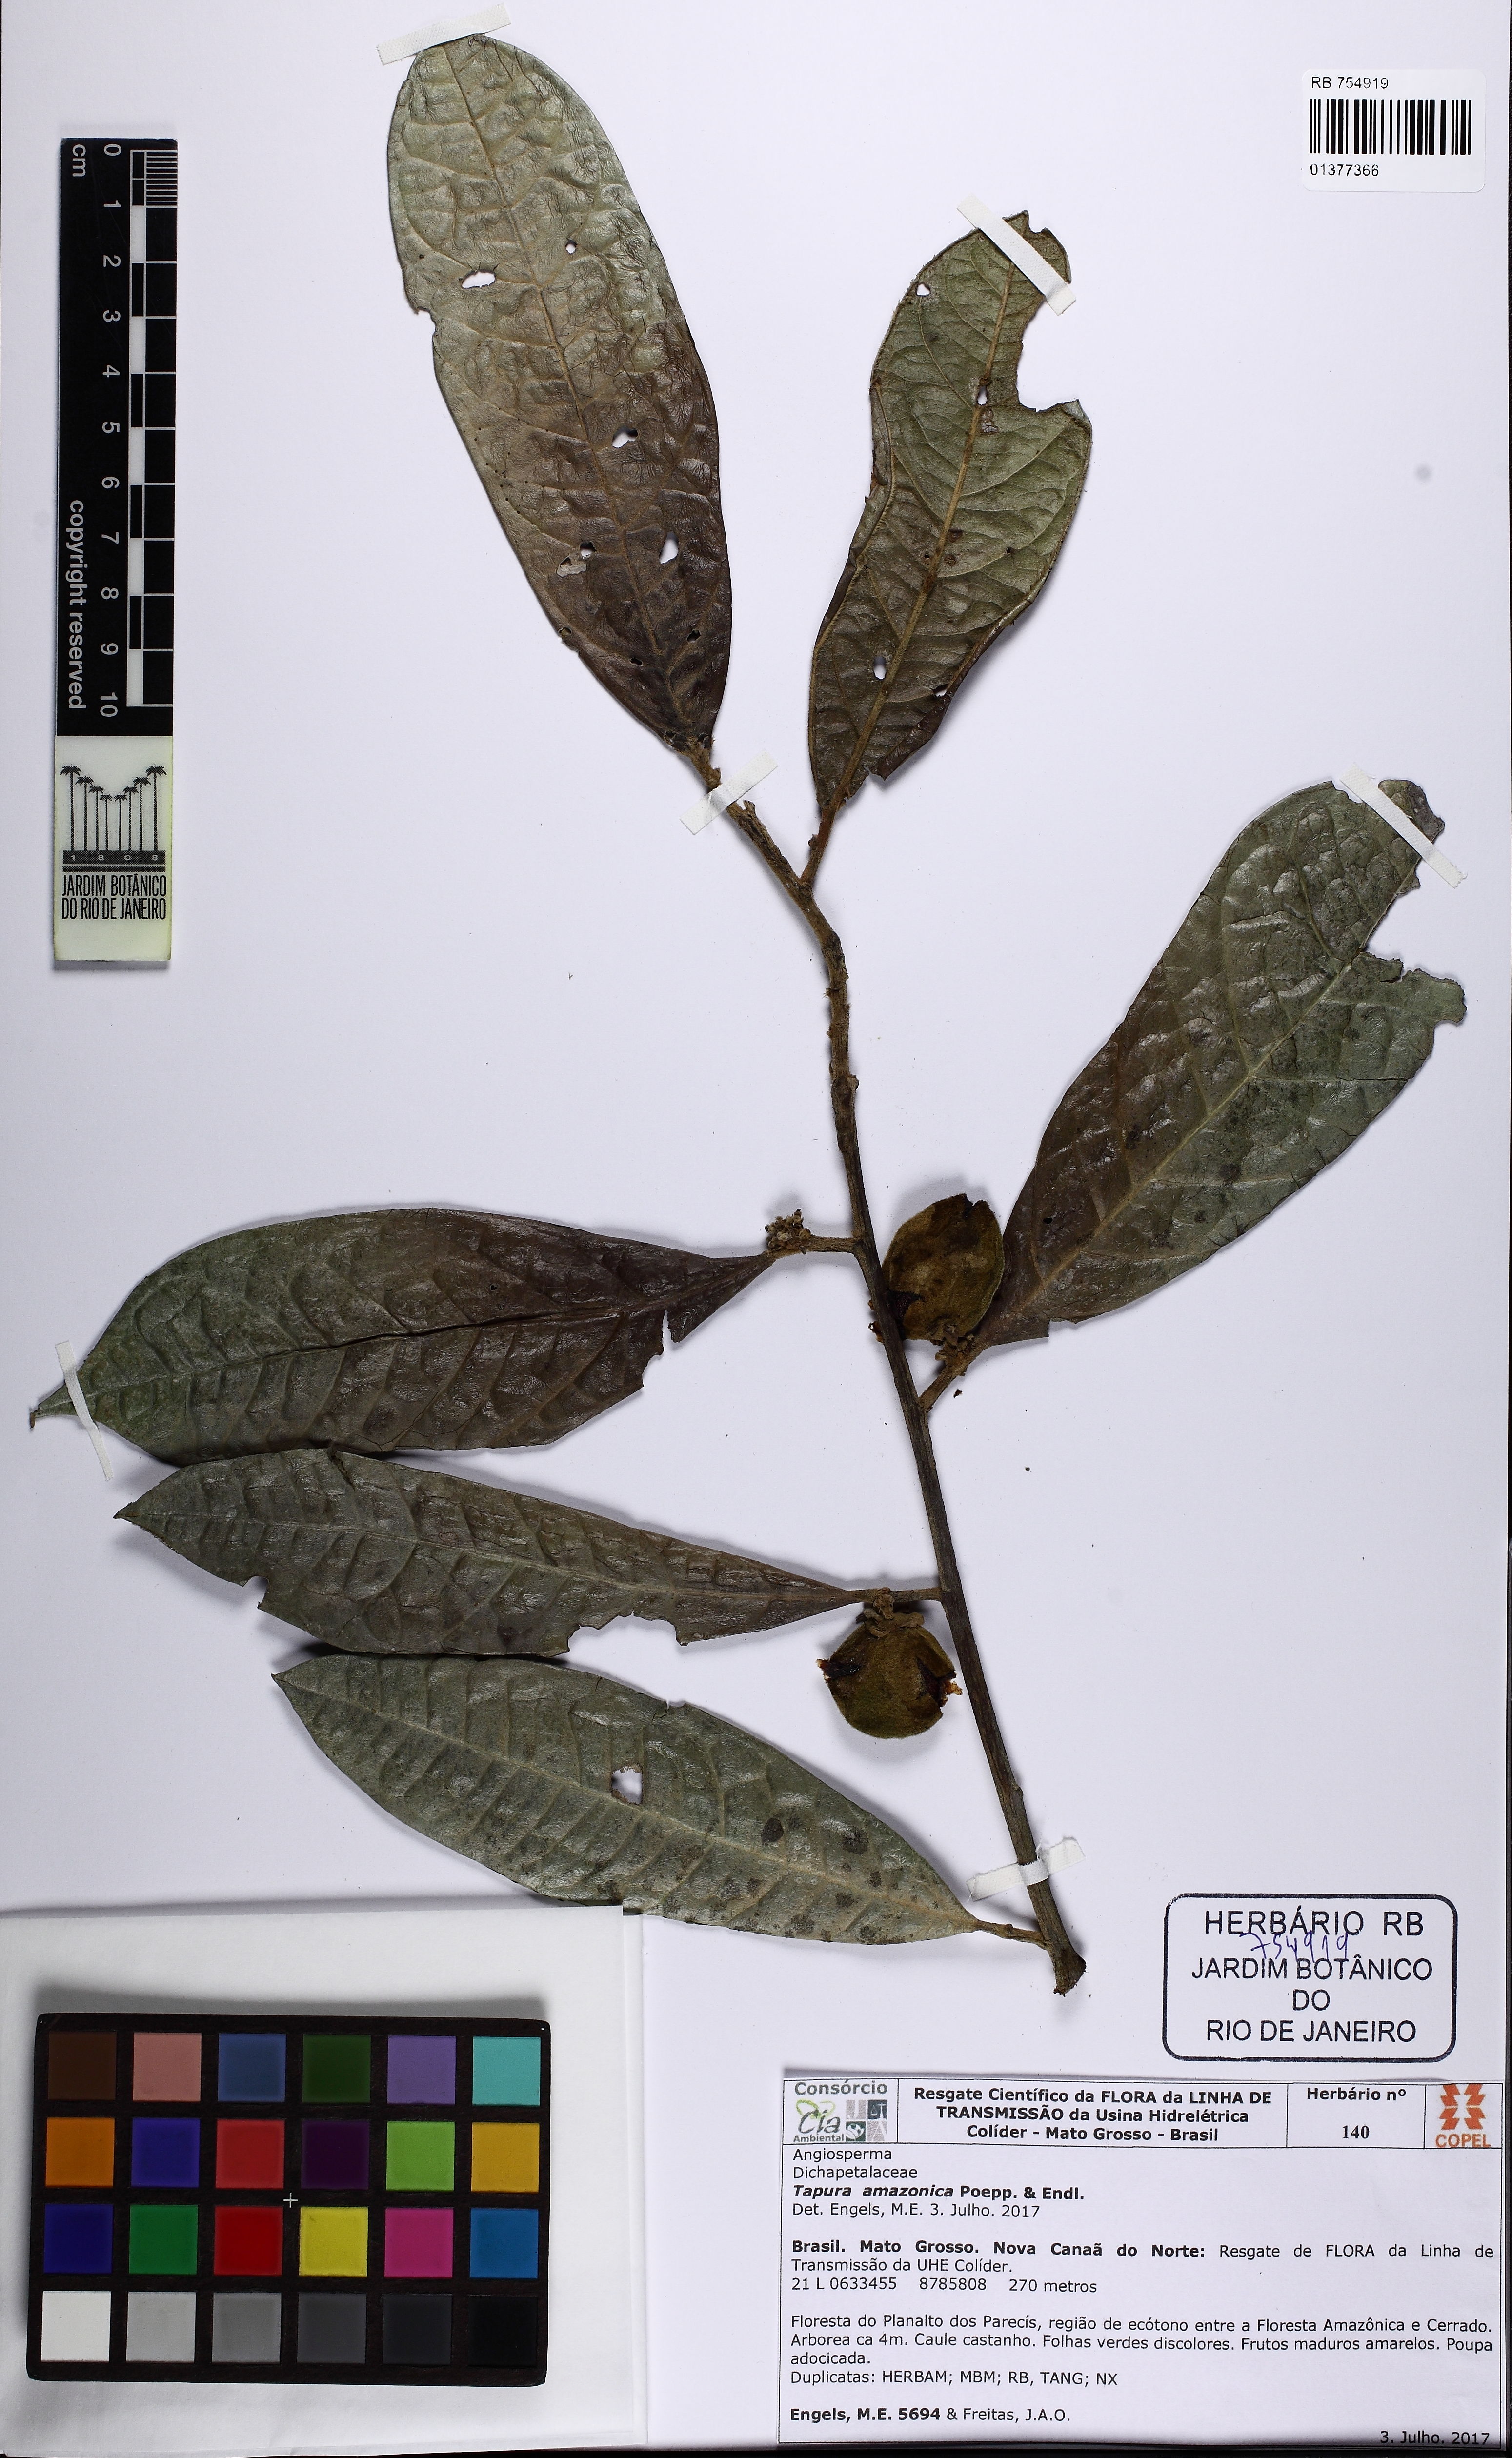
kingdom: Plantae
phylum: Tracheophyta
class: Magnoliopsida
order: Malpighiales
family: Dichapetalaceae
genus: Tapura
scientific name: Tapura amazonica
